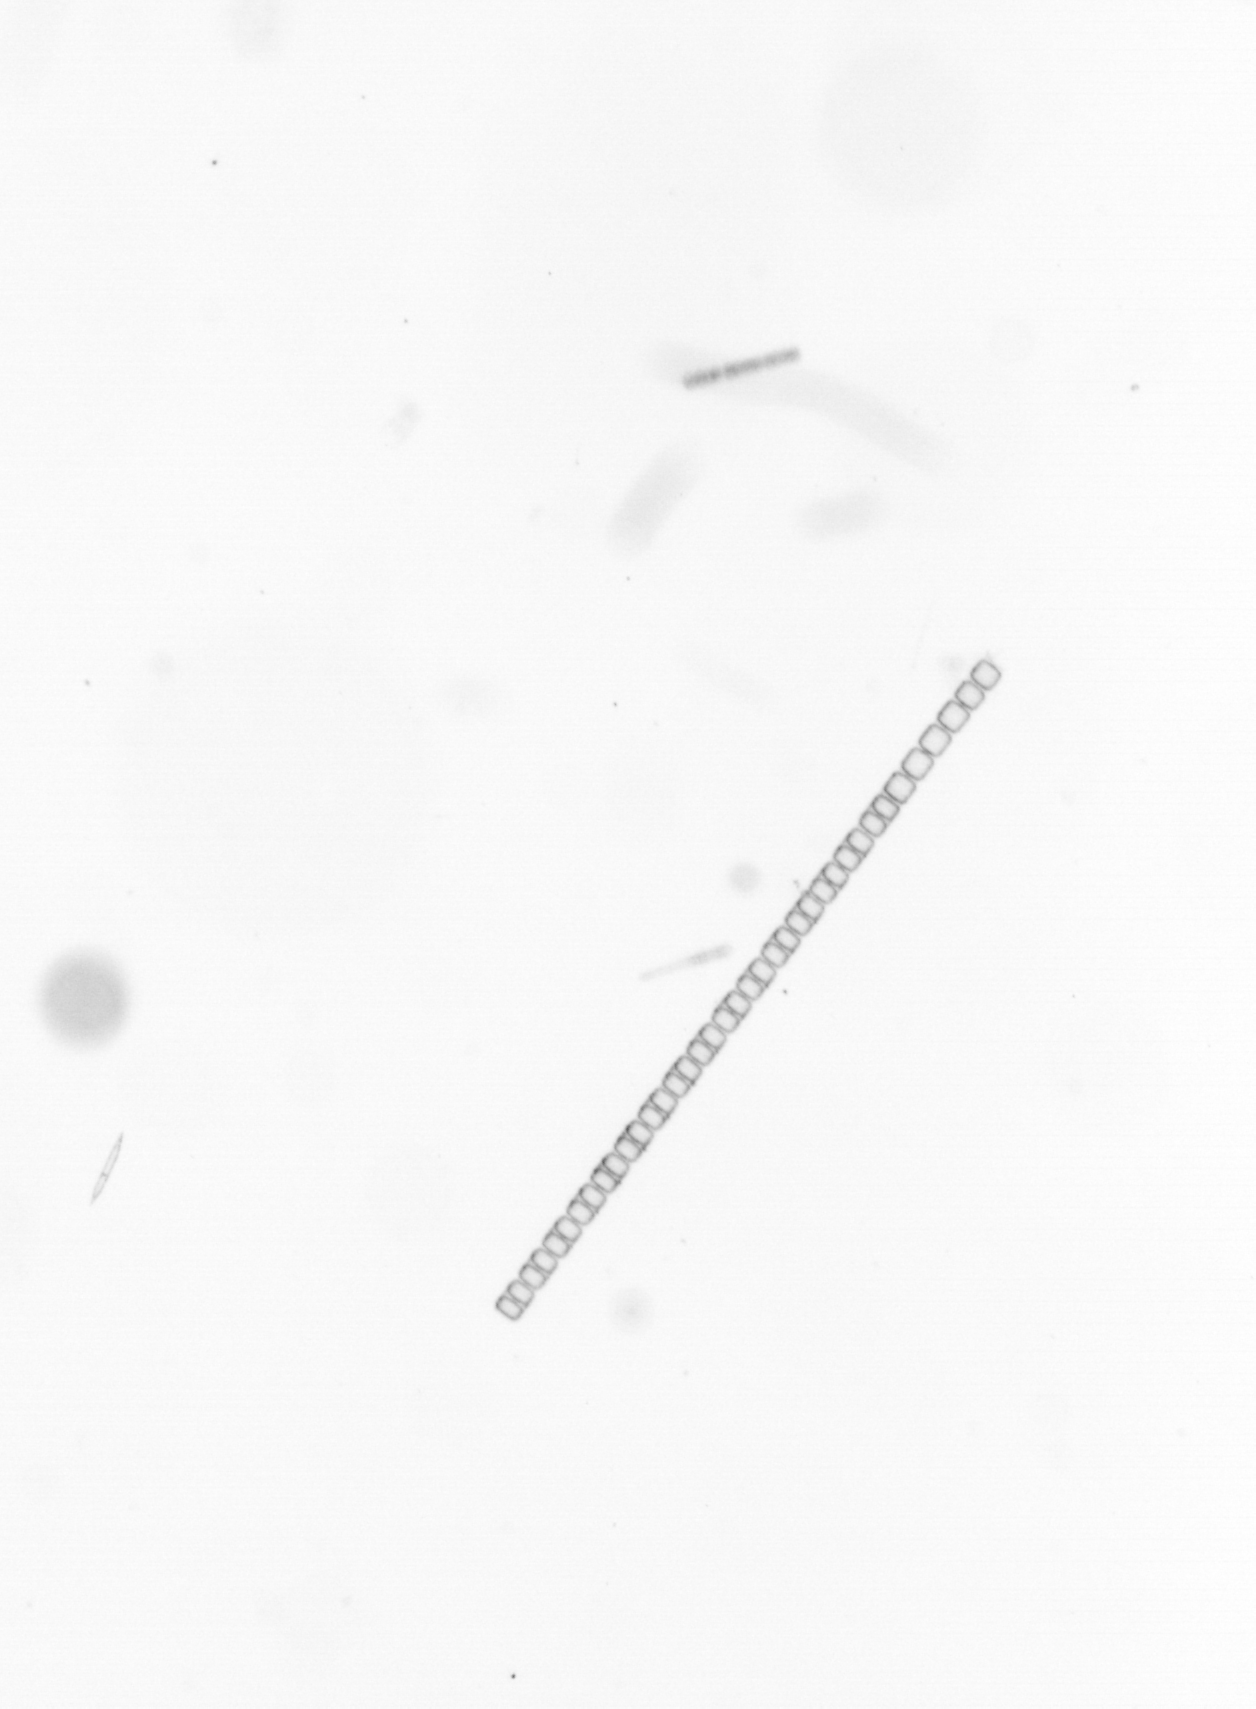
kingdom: Chromista
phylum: Ochrophyta
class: Bacillariophyceae
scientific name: Bacillariophyceae
